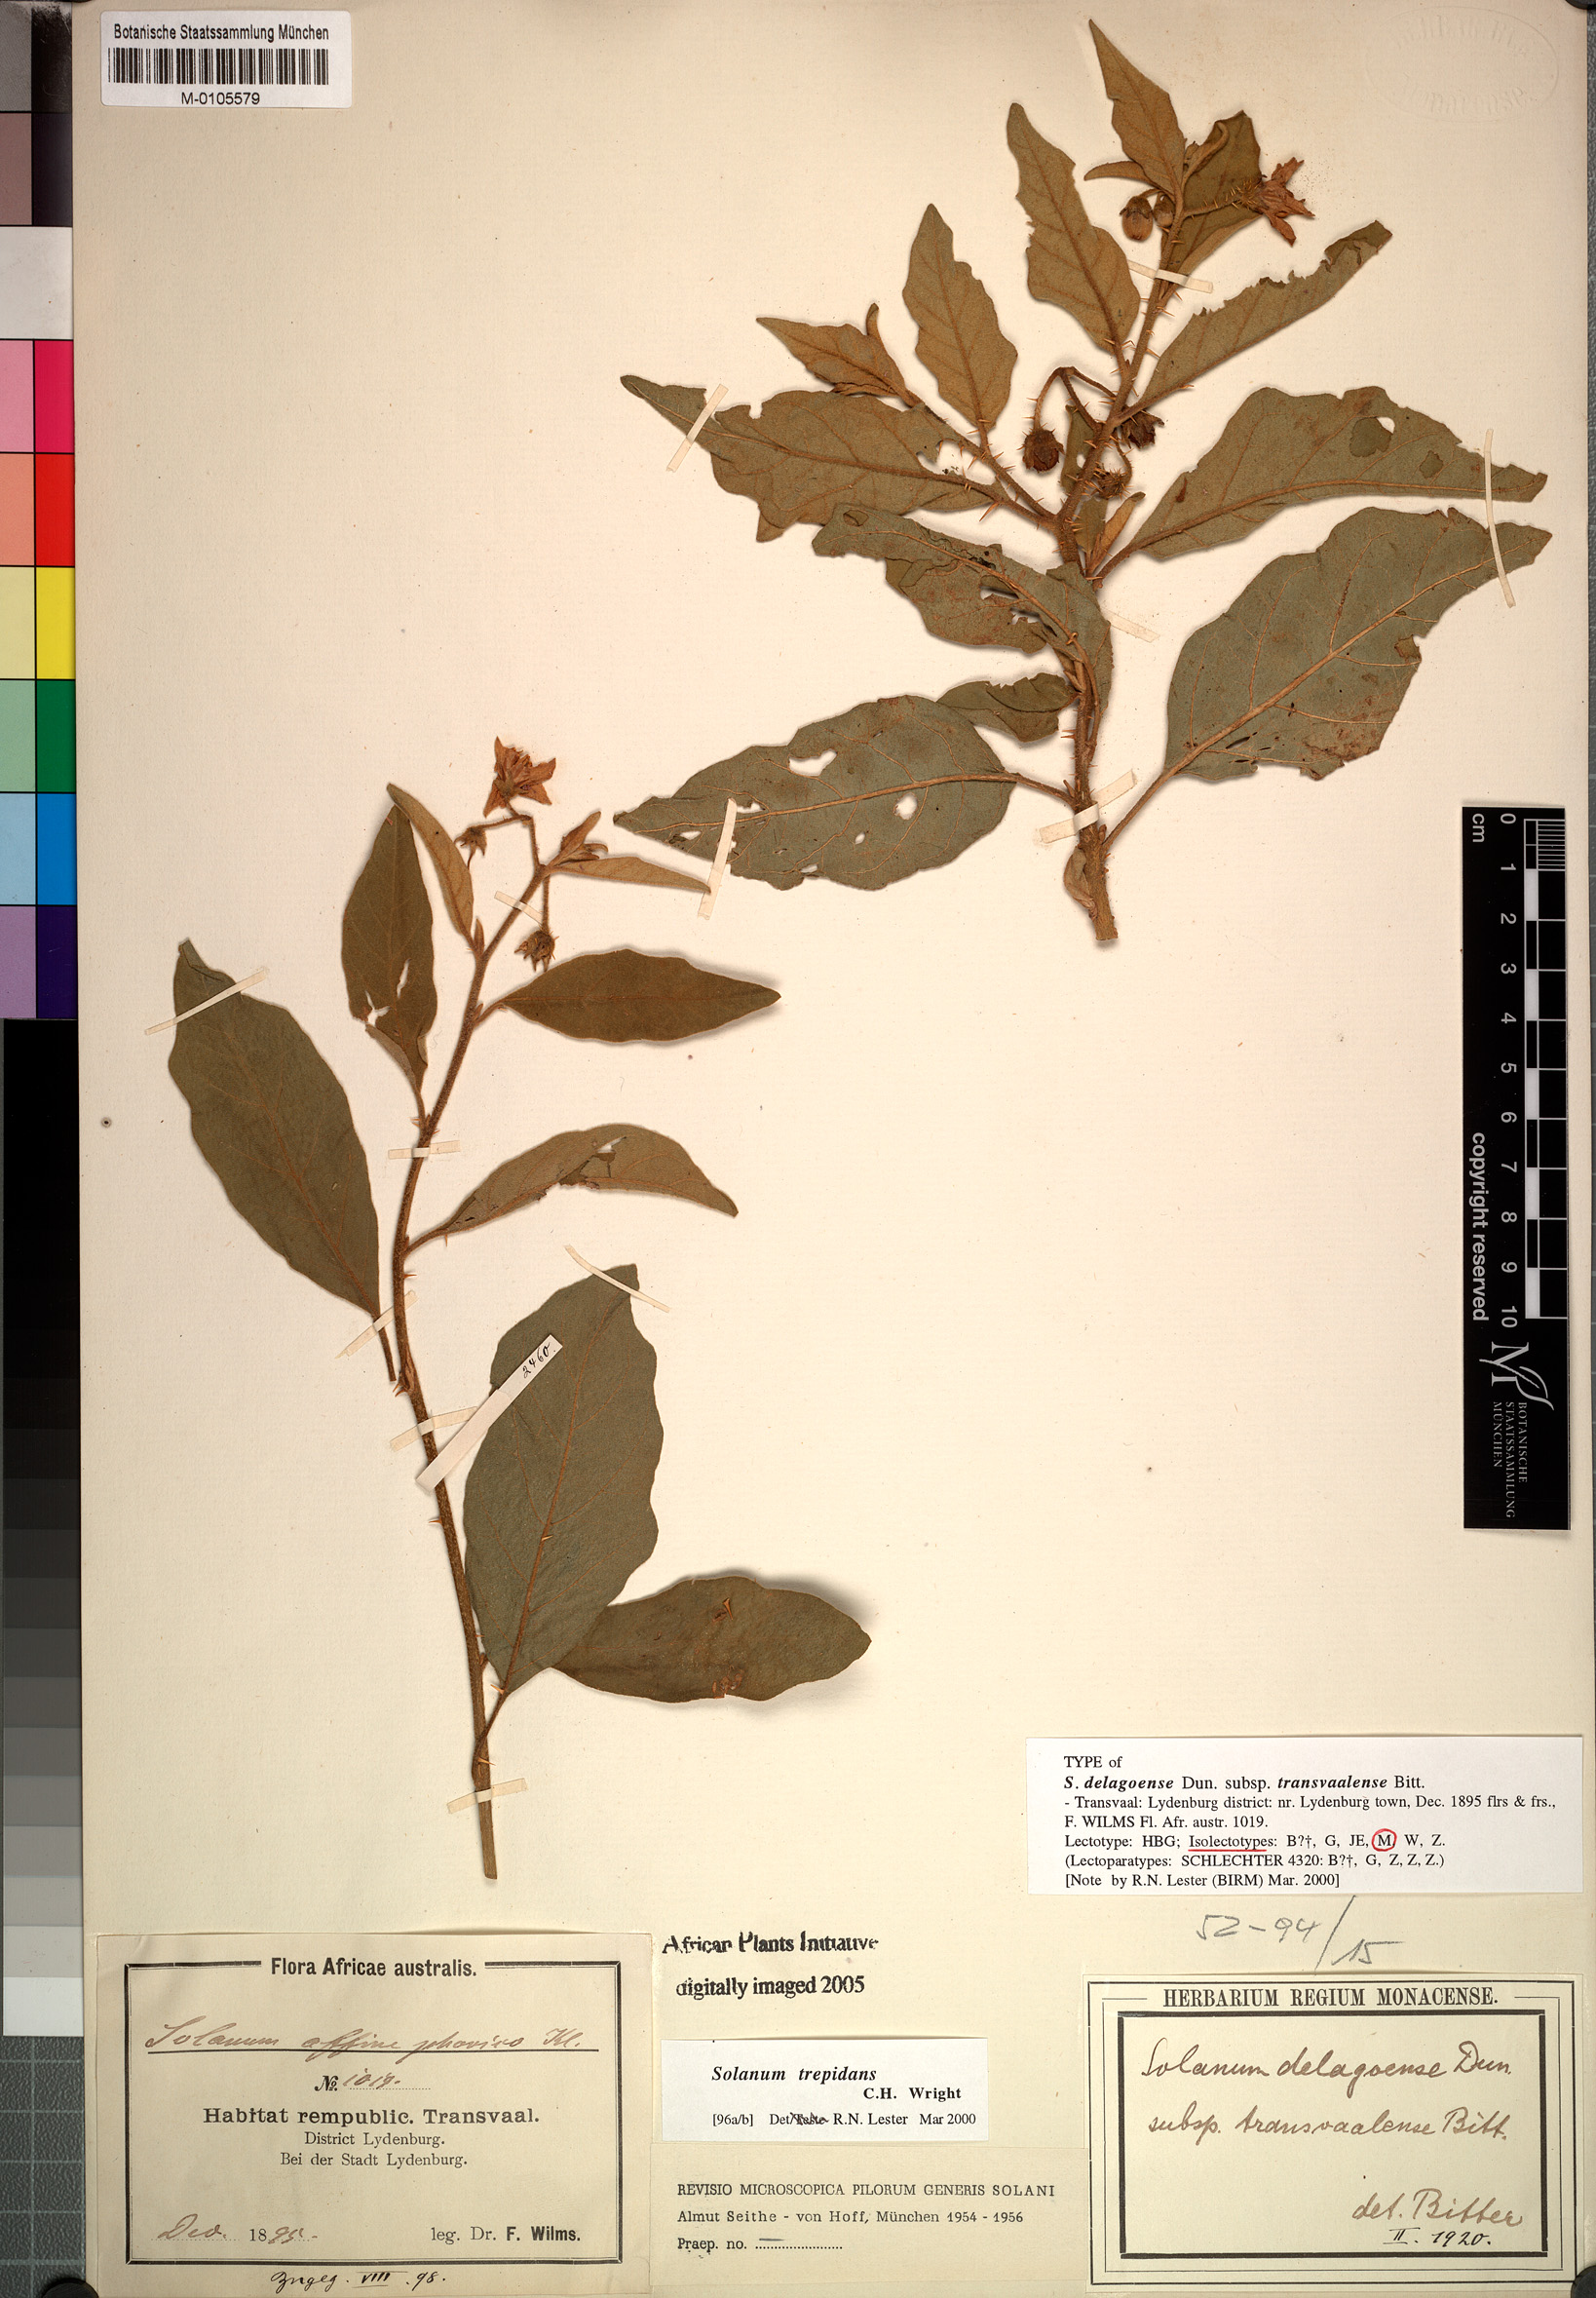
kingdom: Plantae
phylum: Tracheophyta
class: Magnoliopsida
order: Solanales
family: Solanaceae
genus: Solanum
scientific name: Solanum campylacanthum
